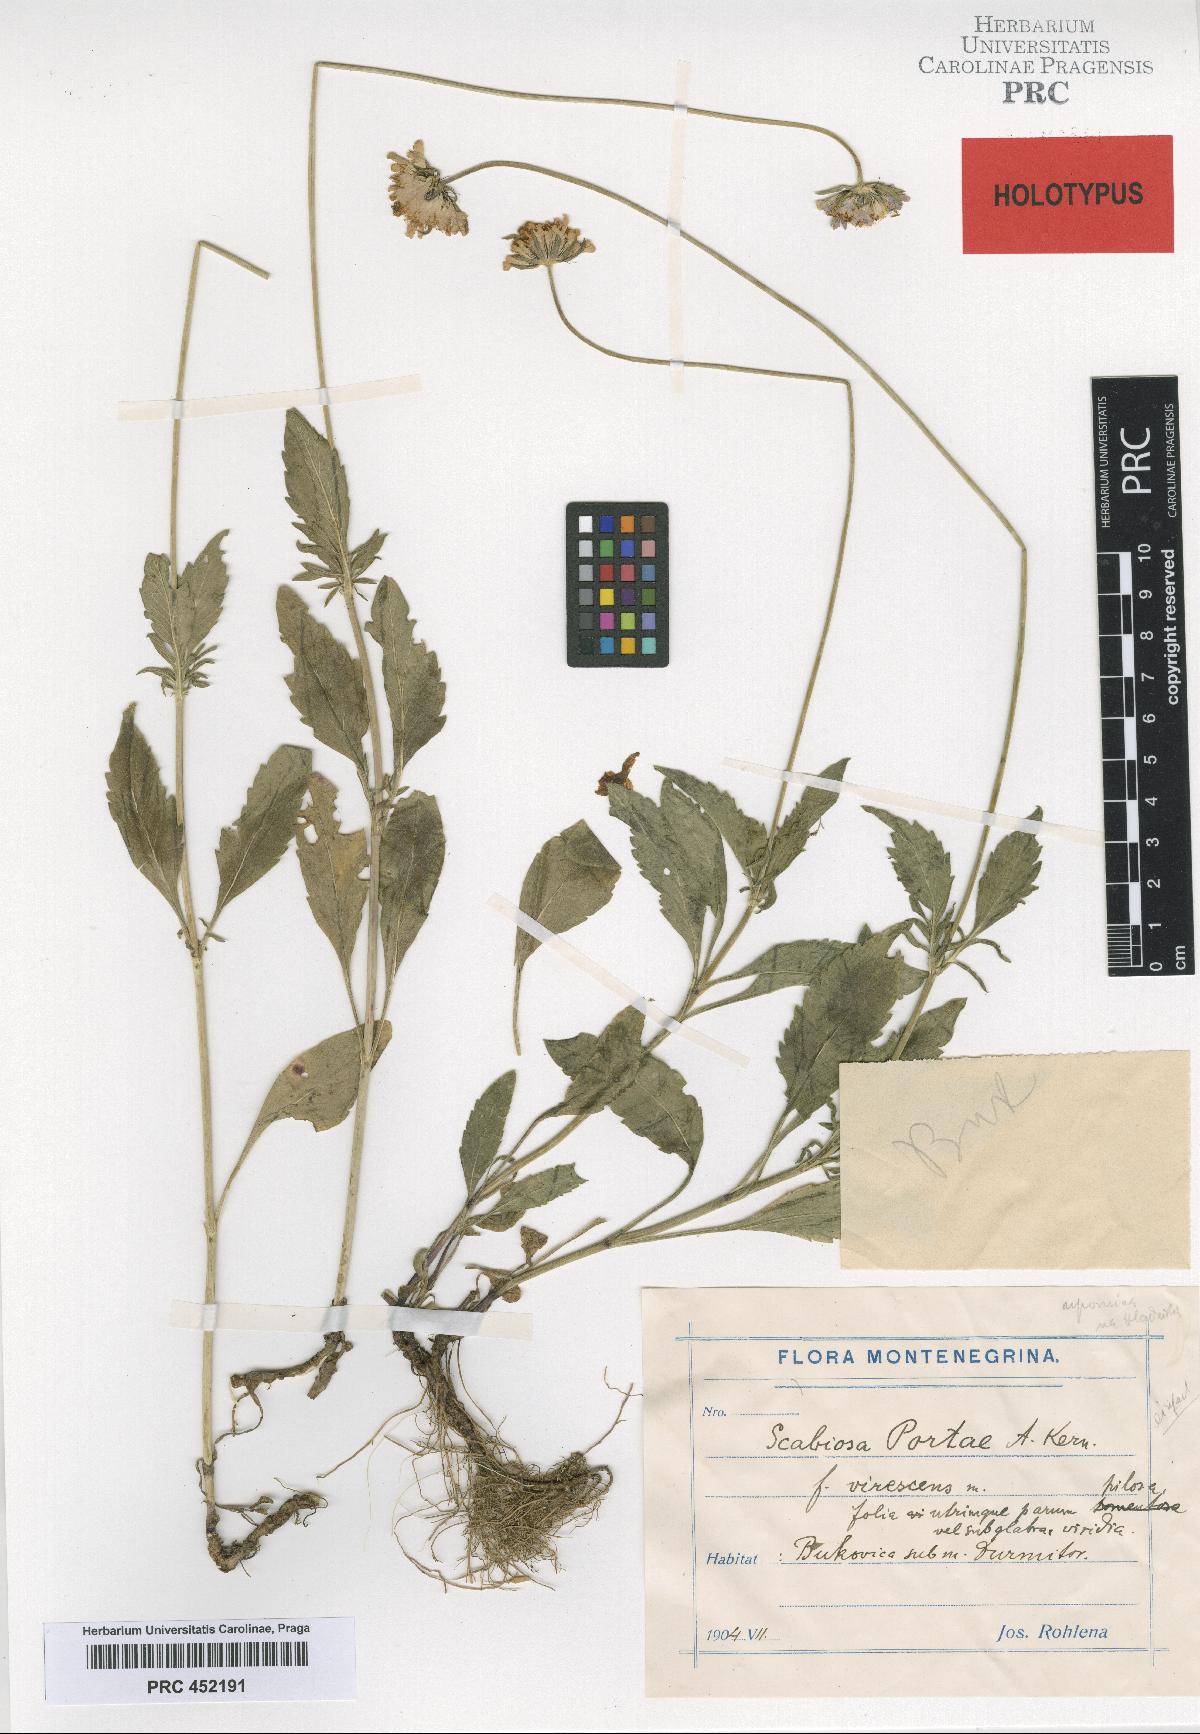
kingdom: Plantae
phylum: Tracheophyta
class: Magnoliopsida
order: Dipsacales
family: Caprifoliaceae
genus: Scabiosa
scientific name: Scabiosa taygetea
